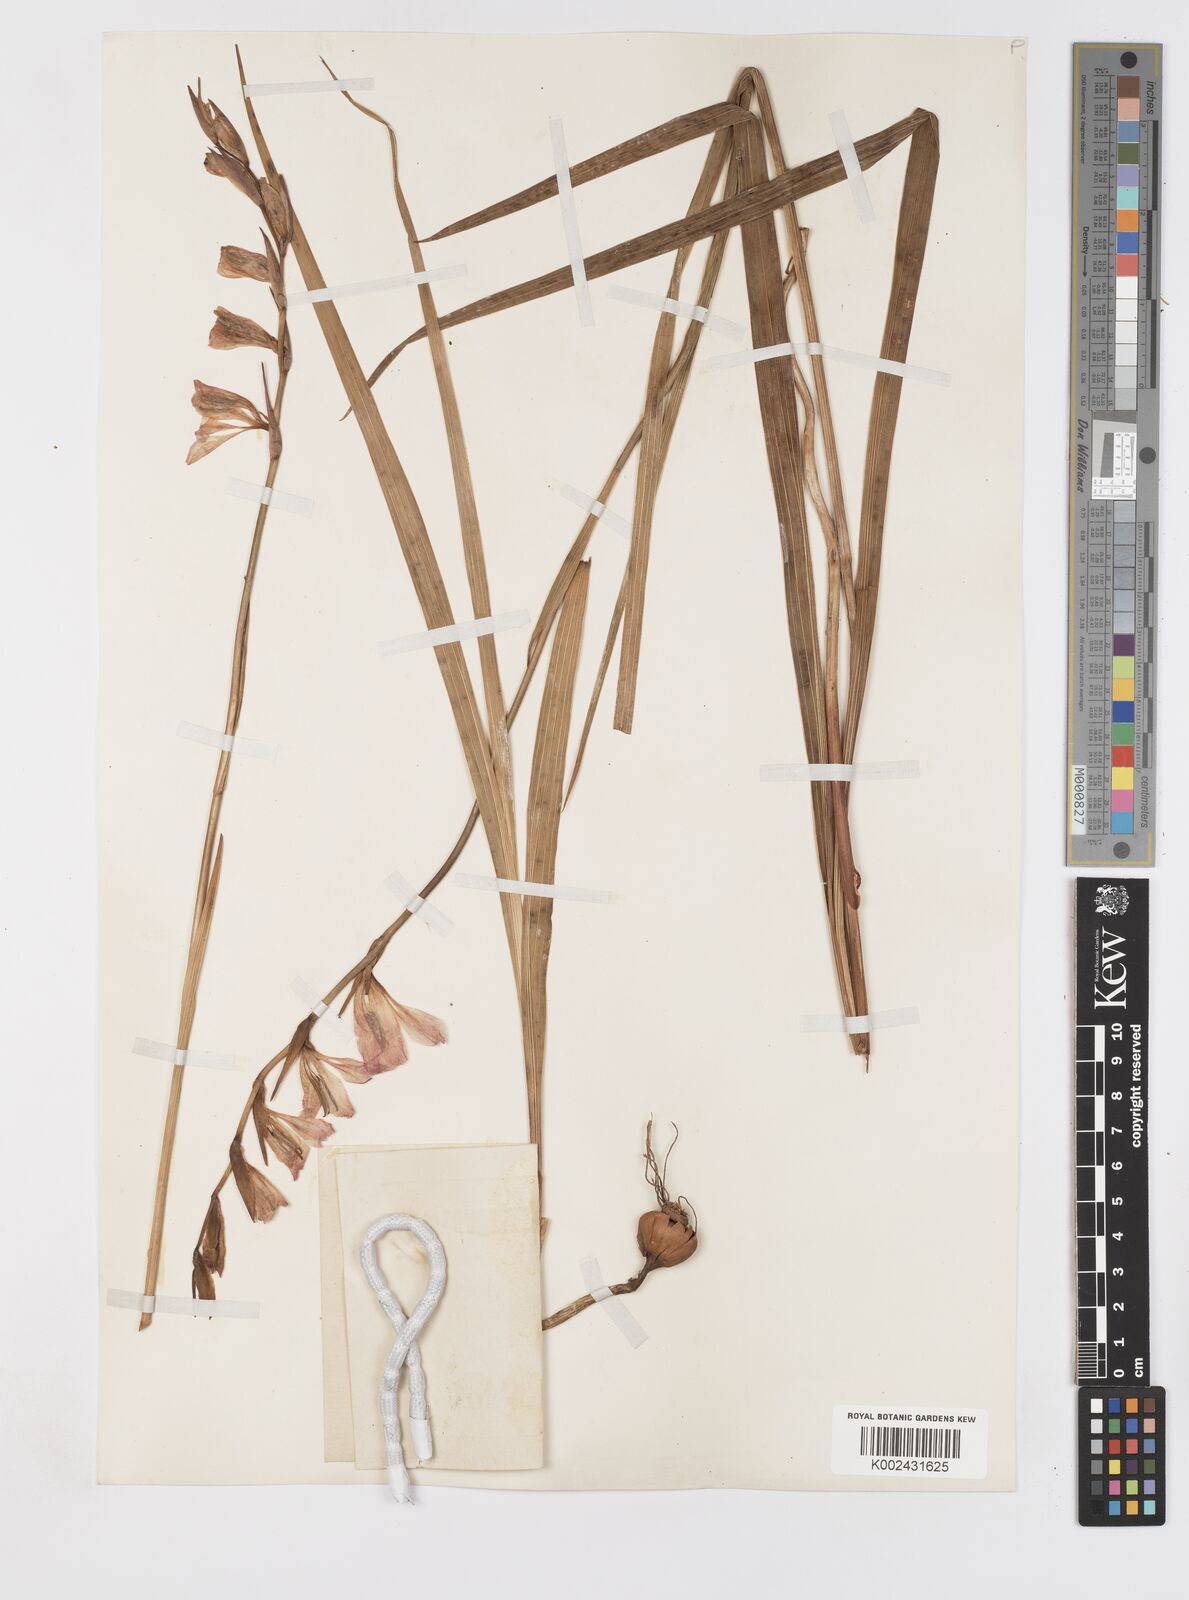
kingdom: Plantae
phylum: Tracheophyta
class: Liliopsida
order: Asparagales
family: Iridaceae
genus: Gladiolus
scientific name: Gladiolus communis
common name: Eastern gladiolus
